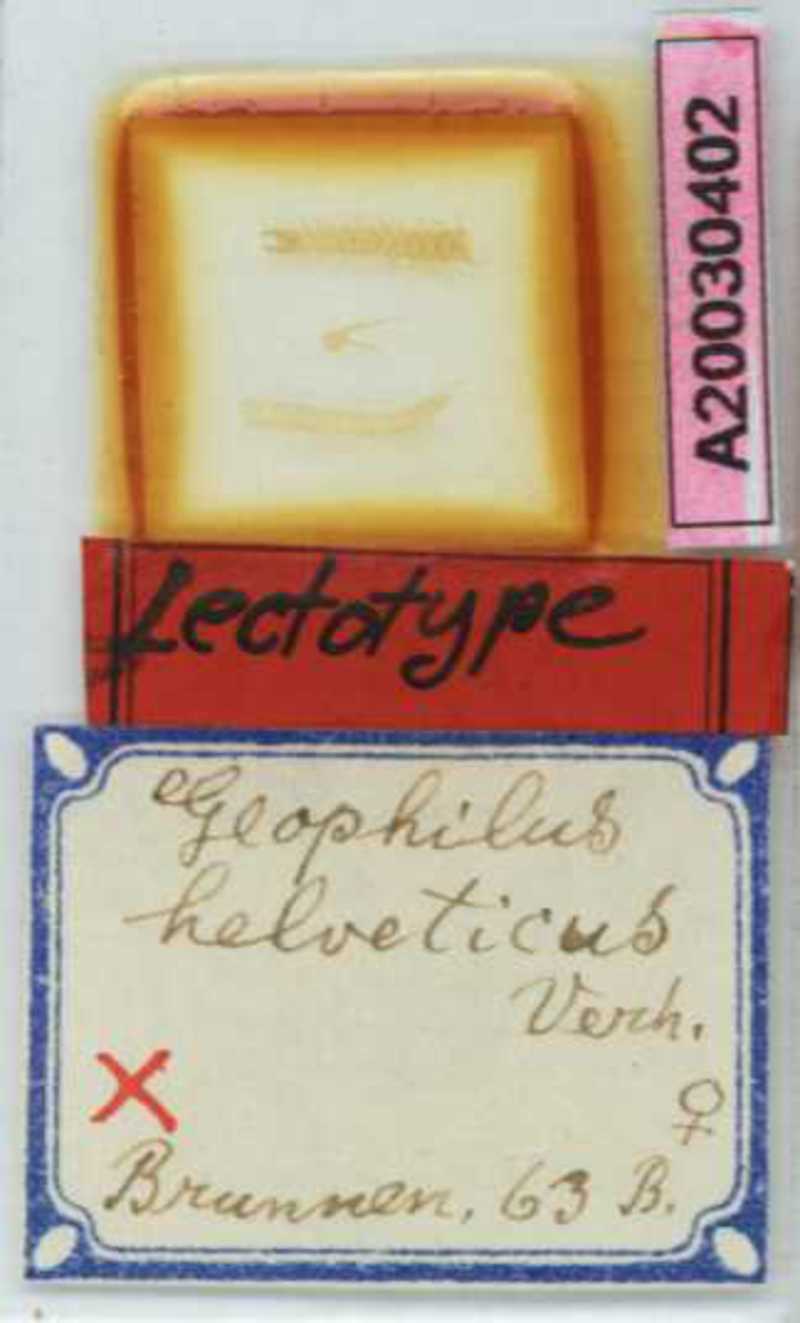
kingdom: Animalia
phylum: Arthropoda
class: Diplopoda
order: Polydesmida
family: Fuhrmannodesmidae
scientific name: Fuhrmannodesmidae
